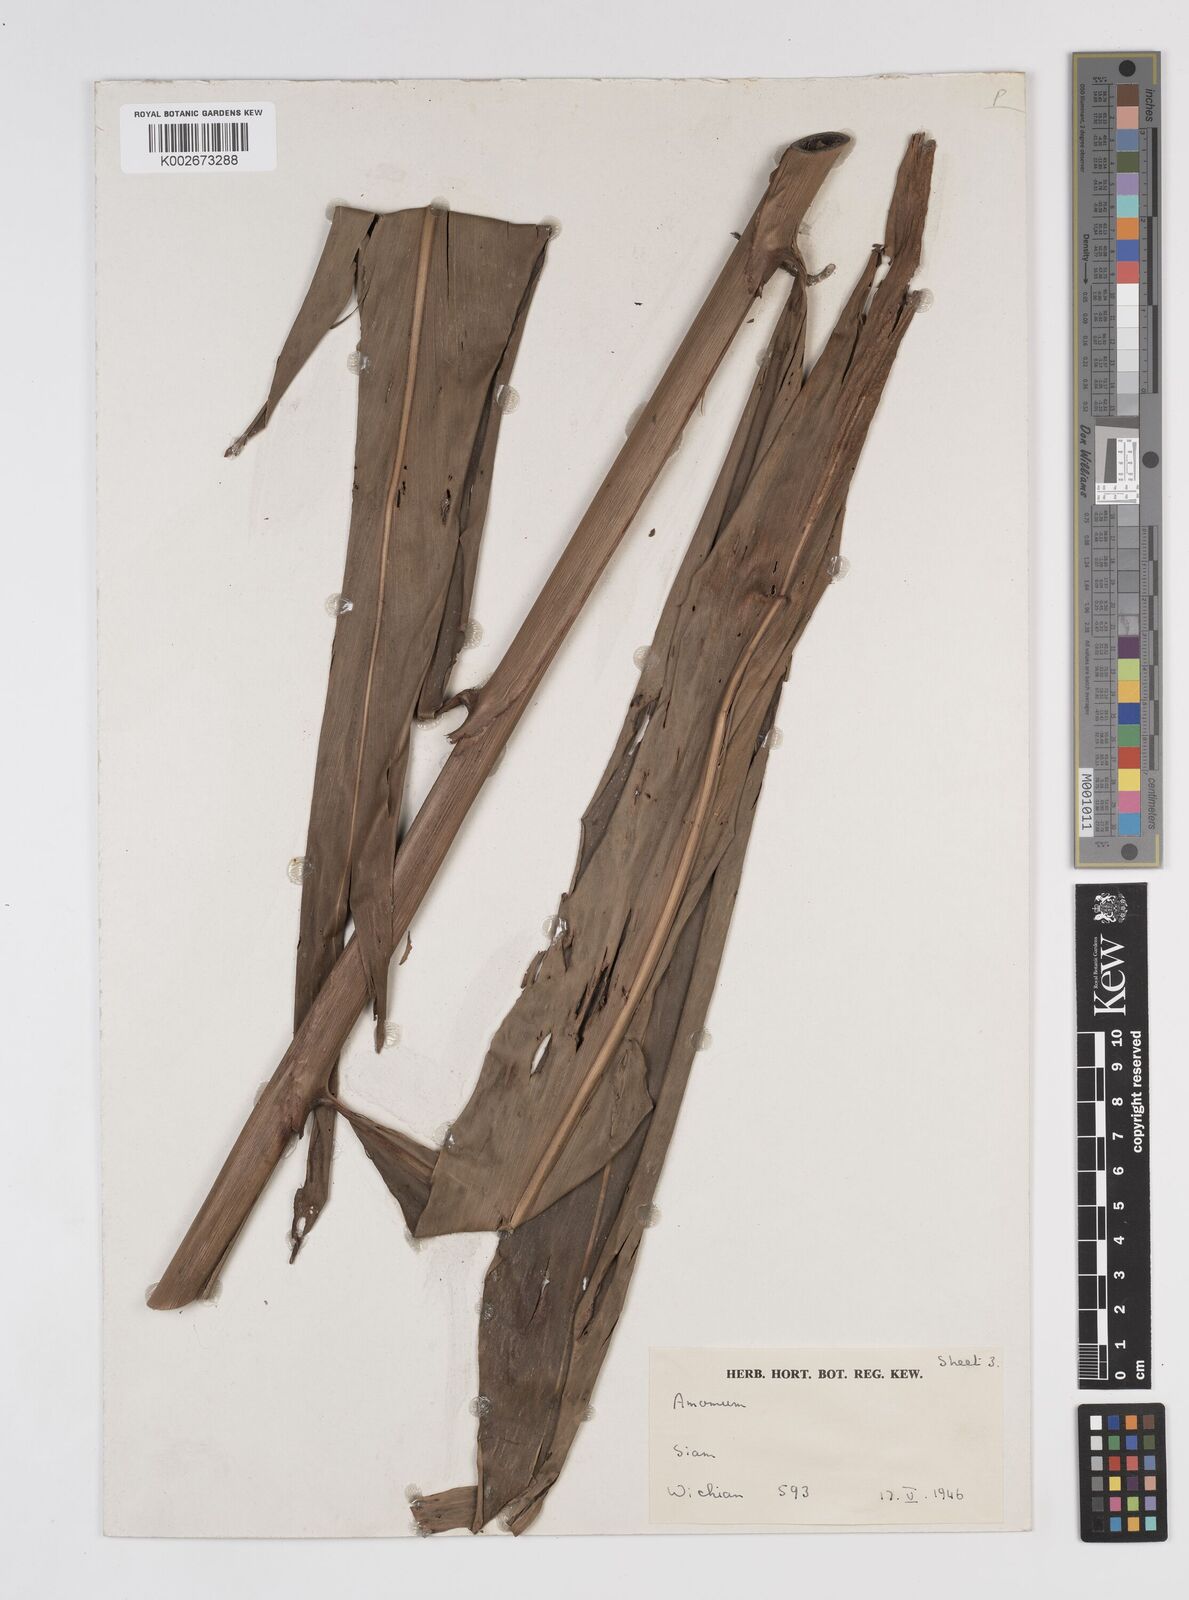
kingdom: Plantae
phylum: Tracheophyta
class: Liliopsida
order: Zingiberales
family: Zingiberaceae
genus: Amomum
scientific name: Amomum
